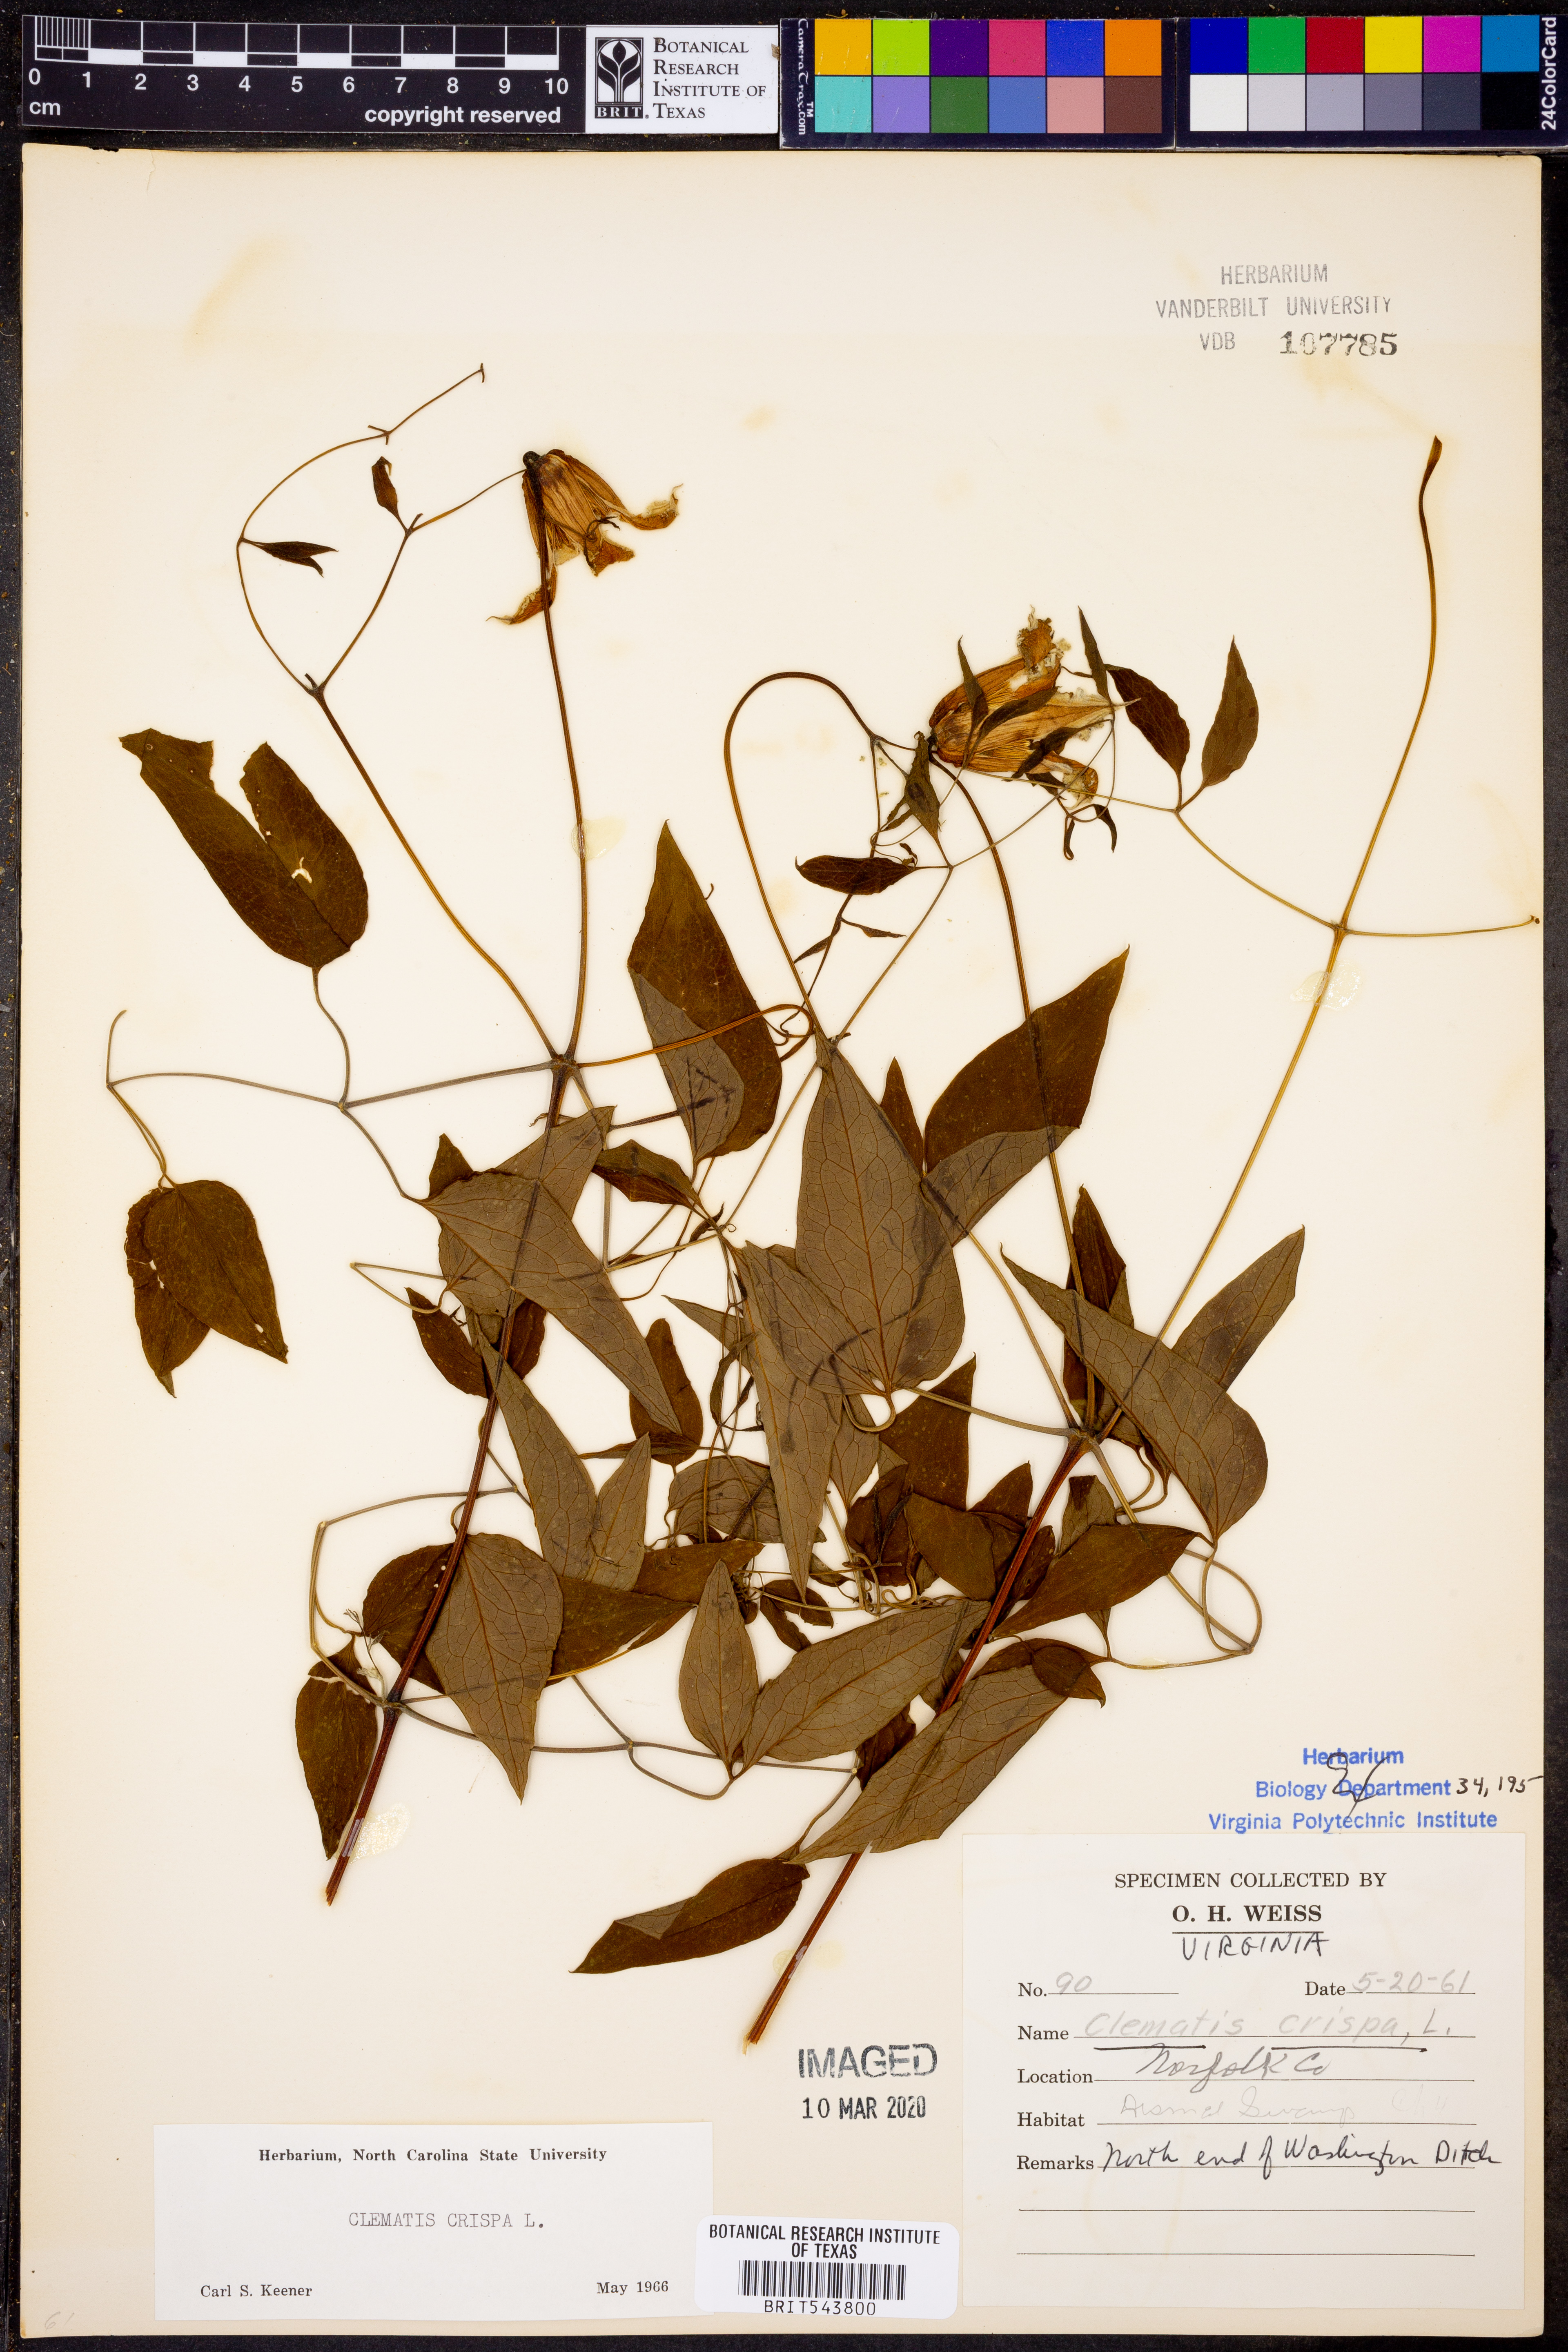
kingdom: Plantae
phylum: Tracheophyta
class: Magnoliopsida
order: Ranunculales
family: Ranunculaceae
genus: Clematis
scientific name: Clematis crispa
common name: Curly clematis
